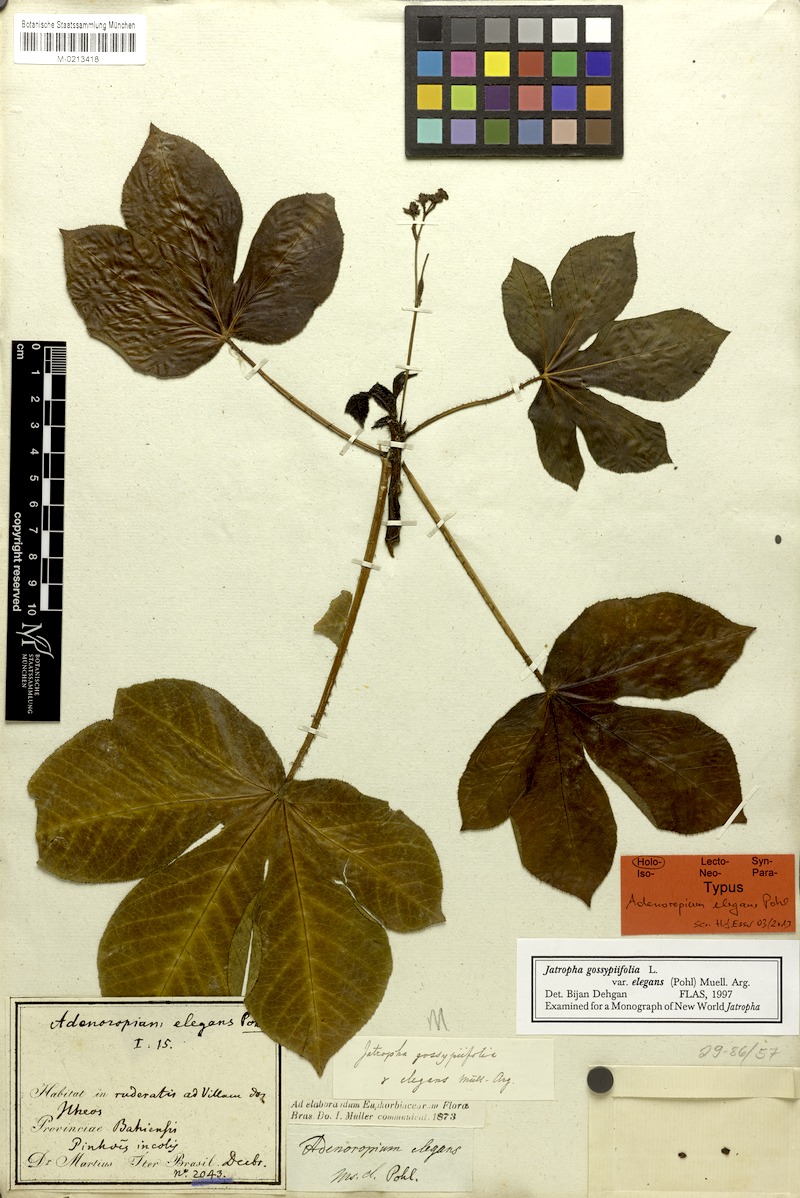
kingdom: Plantae
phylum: Tracheophyta
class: Magnoliopsida
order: Malpighiales
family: Euphorbiaceae
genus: Jatropha
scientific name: Jatropha gossypiifolia
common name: Bellyache bush
